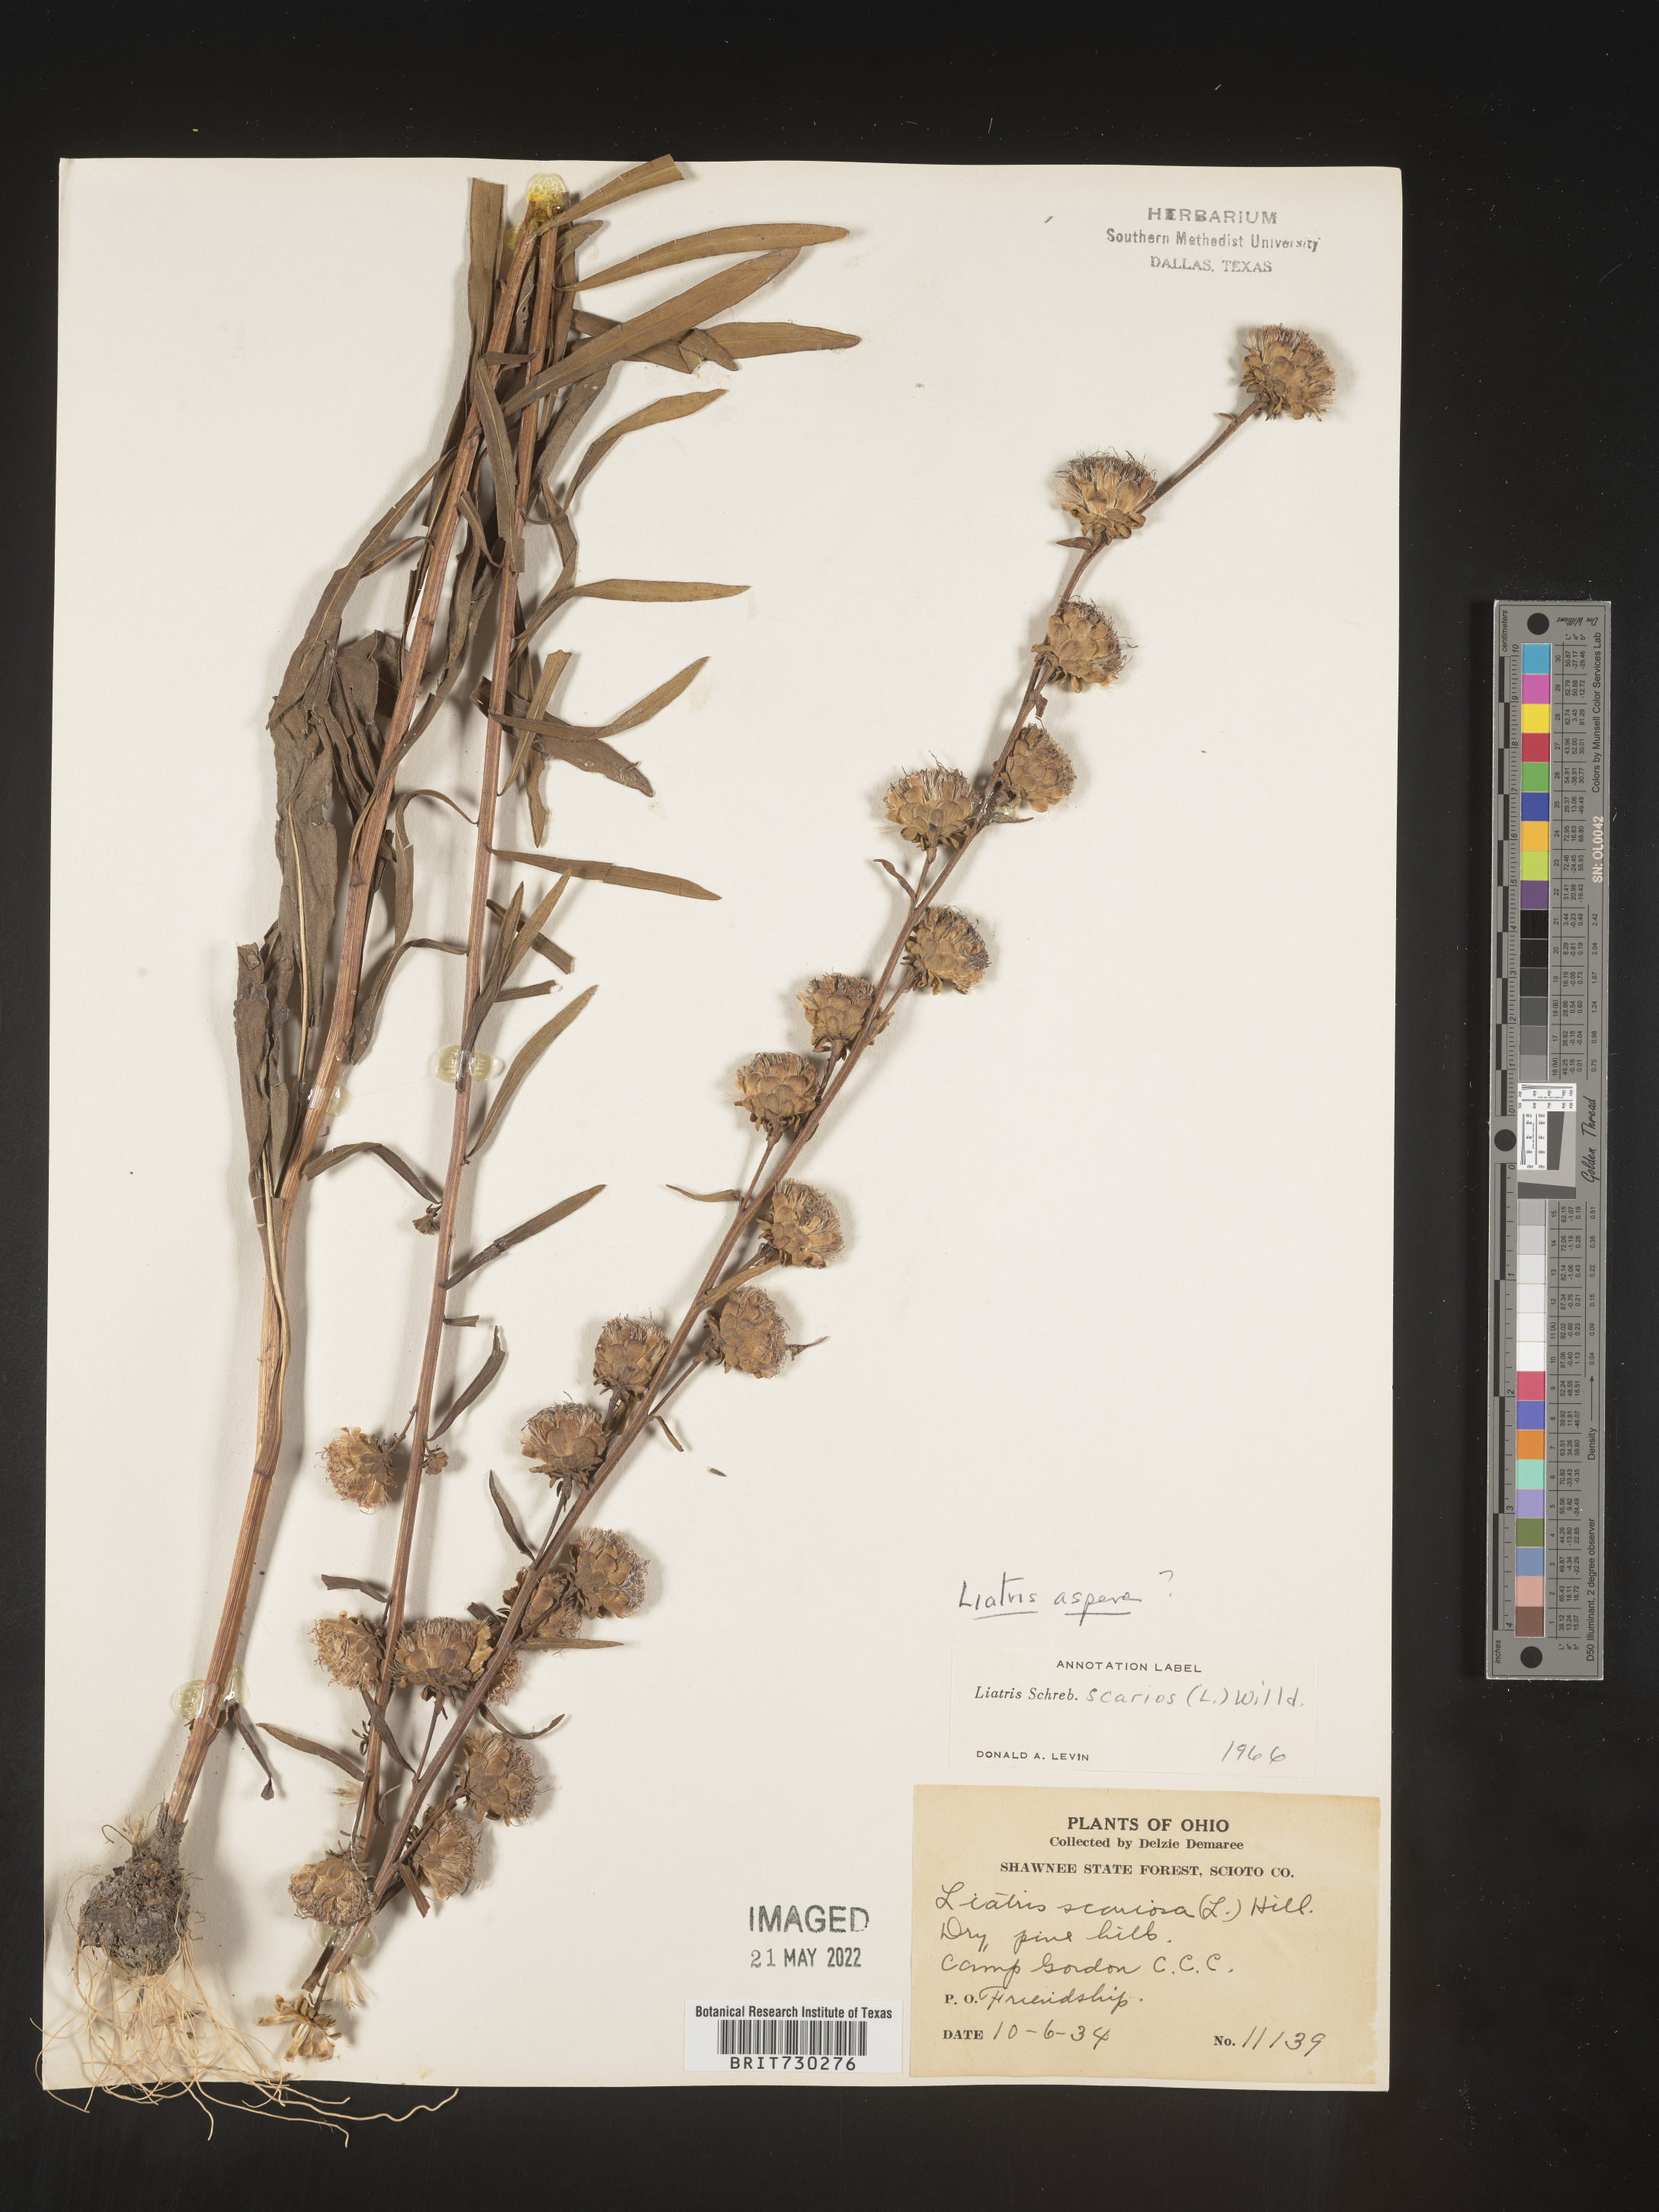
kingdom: Plantae
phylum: Tracheophyta
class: Magnoliopsida
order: Asterales
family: Asteraceae
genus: Liatris
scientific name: Liatris aspera
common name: Lacerate blazing-star
